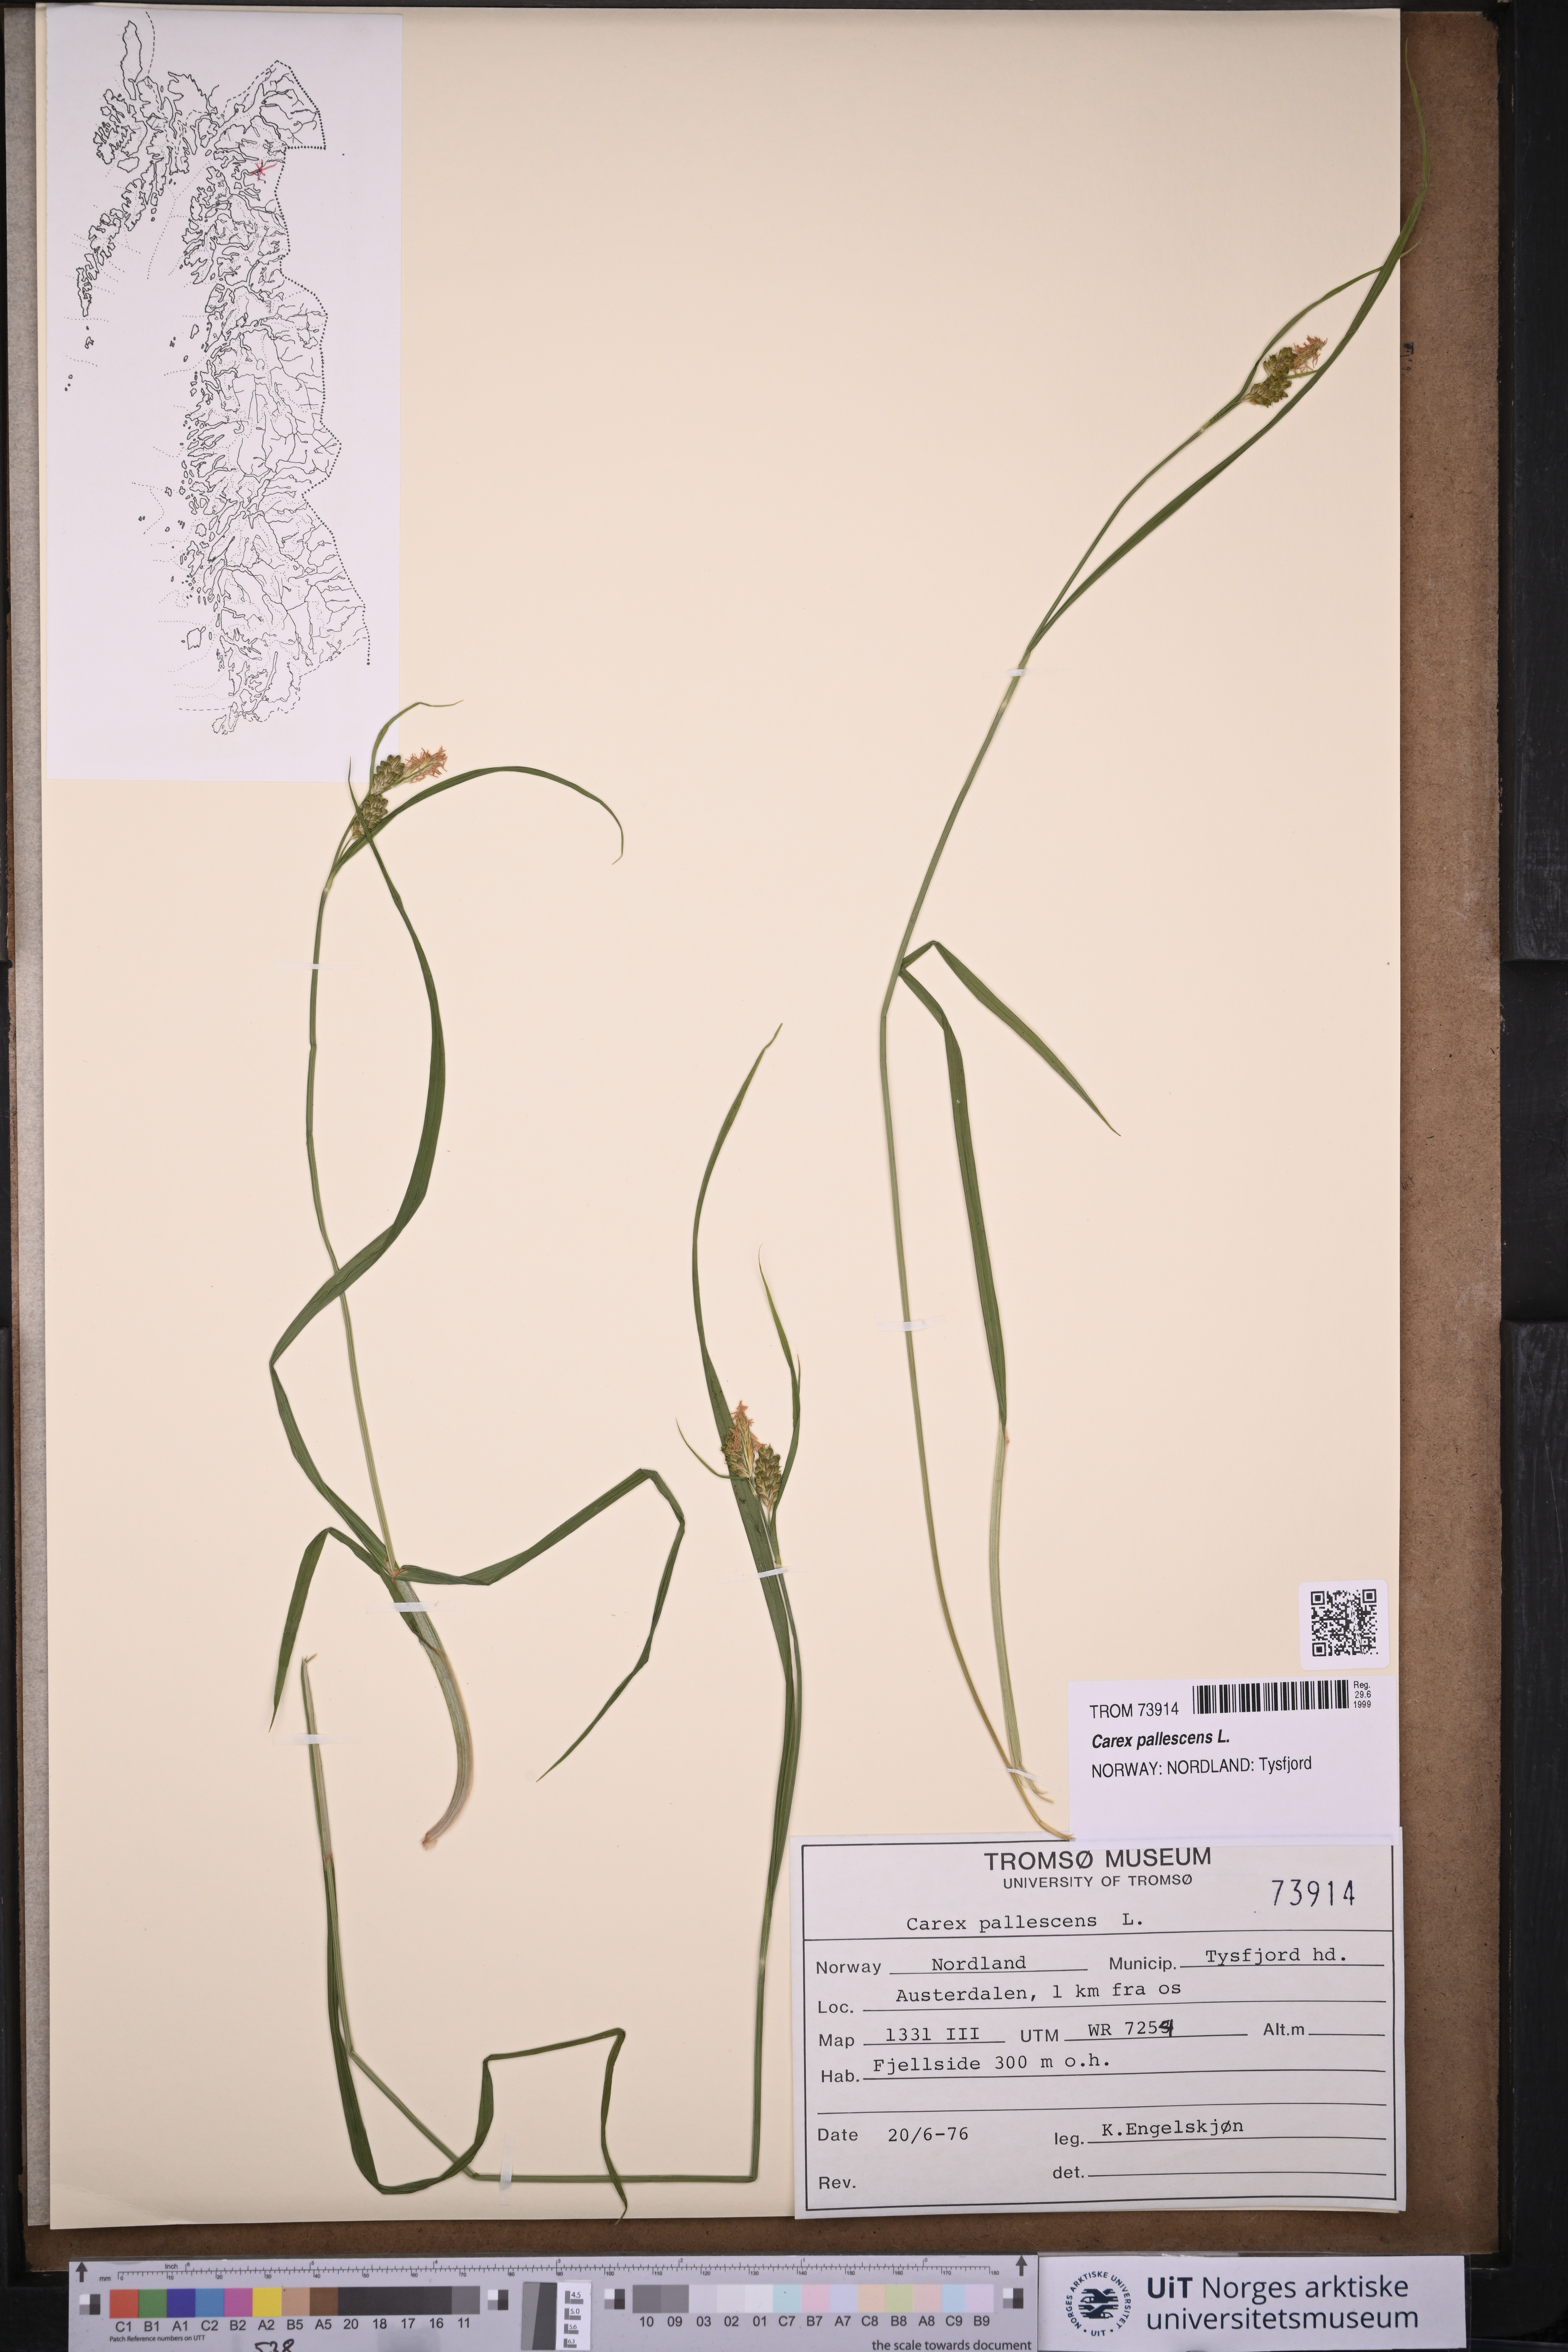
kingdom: Plantae
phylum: Tracheophyta
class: Liliopsida
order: Poales
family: Cyperaceae
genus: Carex
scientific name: Carex pallescens
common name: Pale sedge
